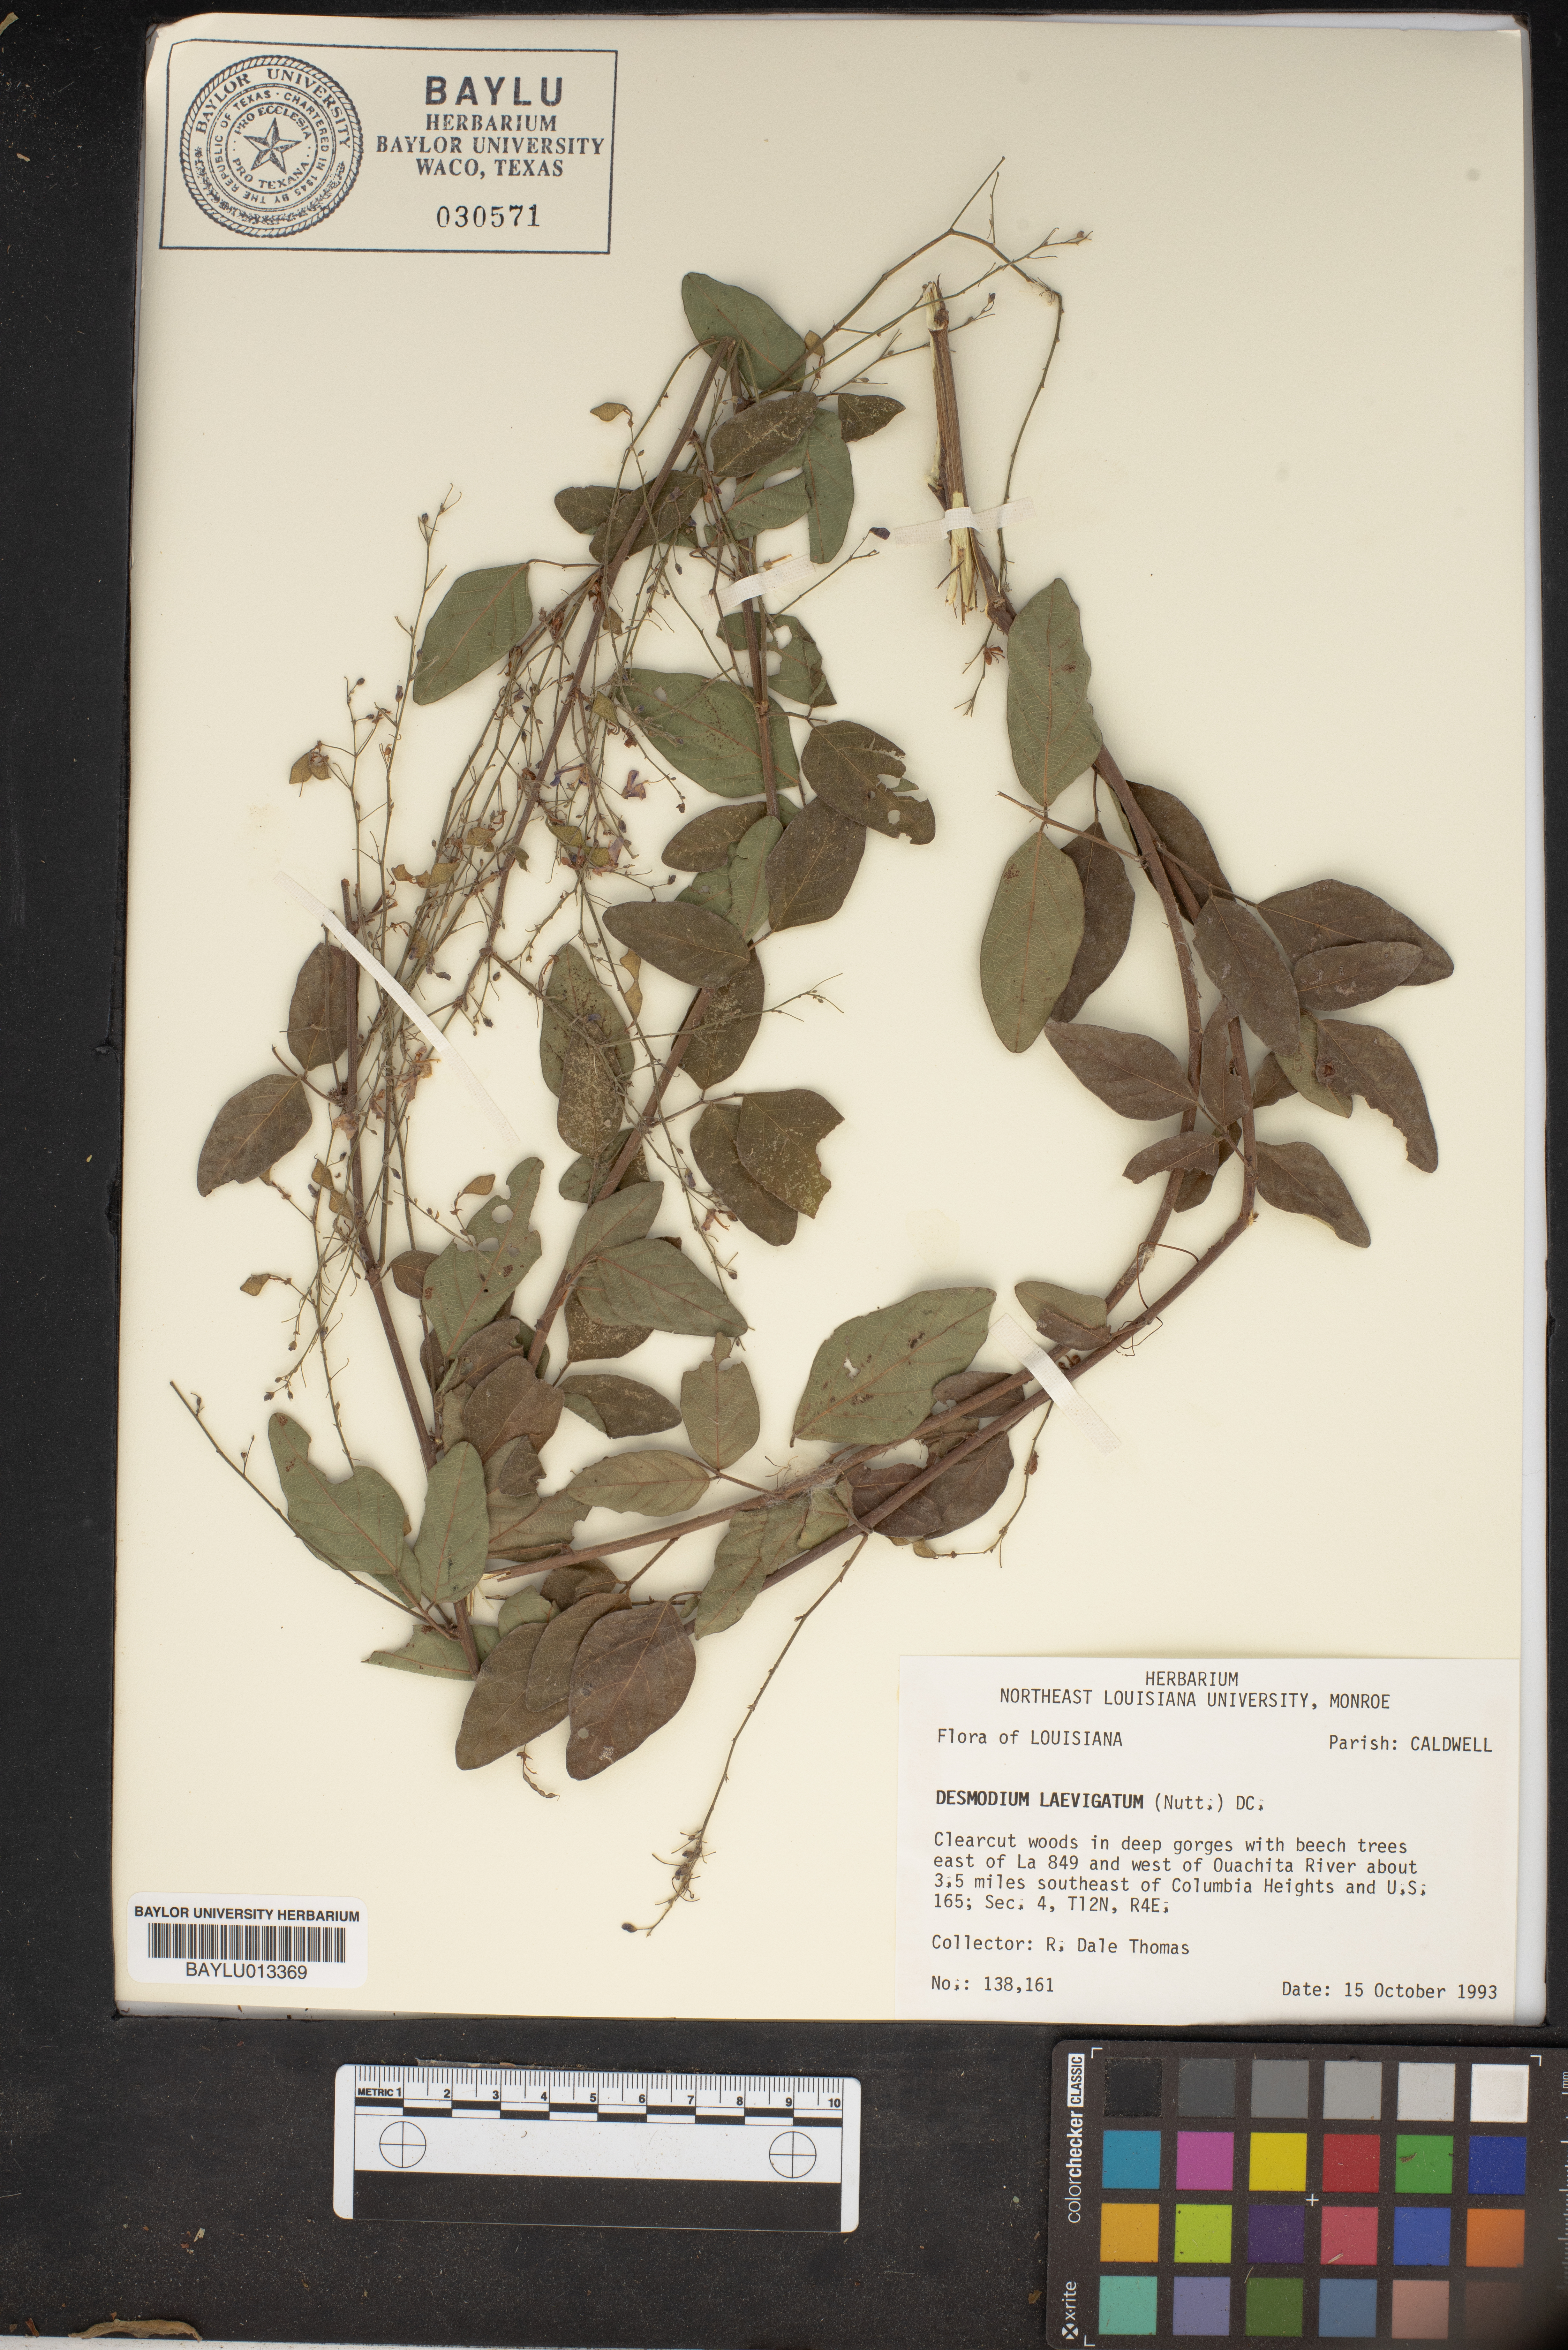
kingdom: Plantae
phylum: Tracheophyta
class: Magnoliopsida
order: Fabales
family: Fabaceae
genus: Desmodium
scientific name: Desmodium laevigatum
